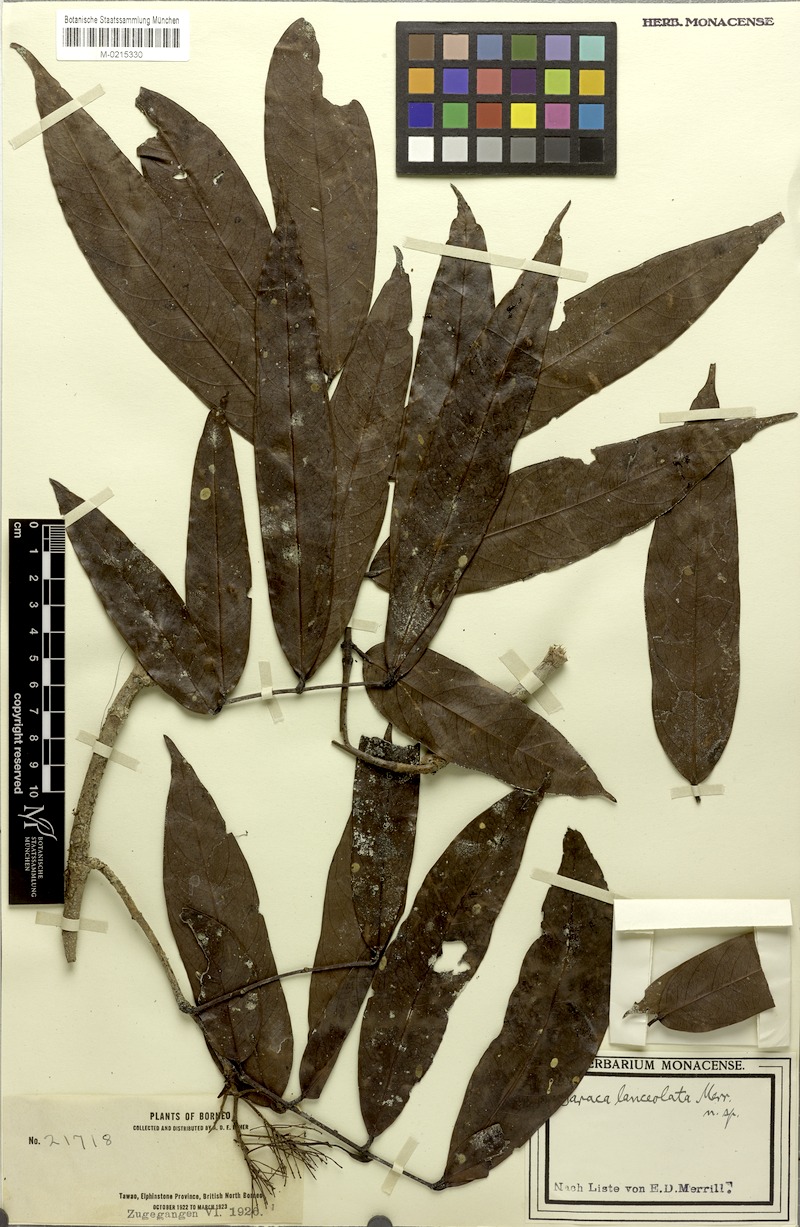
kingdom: Plantae
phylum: Tracheophyta
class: Magnoliopsida
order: Fabales
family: Fabaceae
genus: Saraca
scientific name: Saraca declinata
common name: Red saraca
